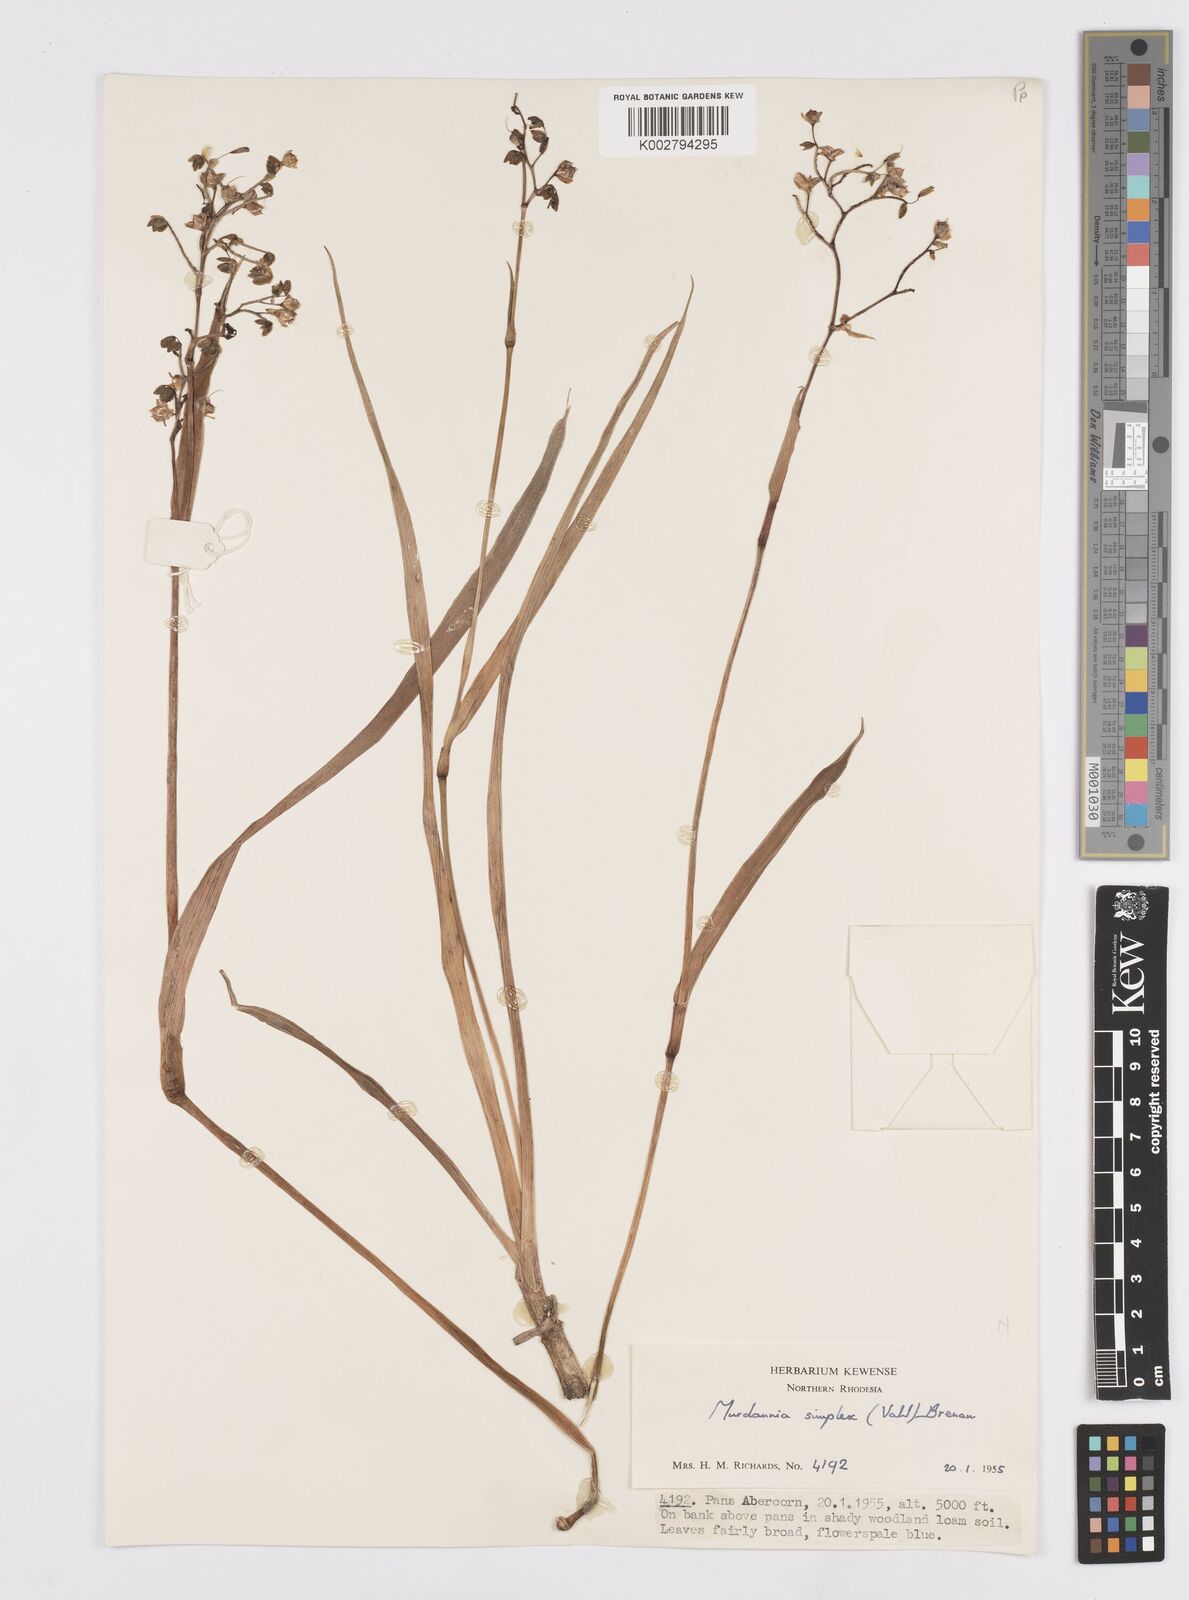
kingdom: Plantae
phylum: Tracheophyta
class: Liliopsida
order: Commelinales
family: Commelinaceae
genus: Murdannia
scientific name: Murdannia simplex
